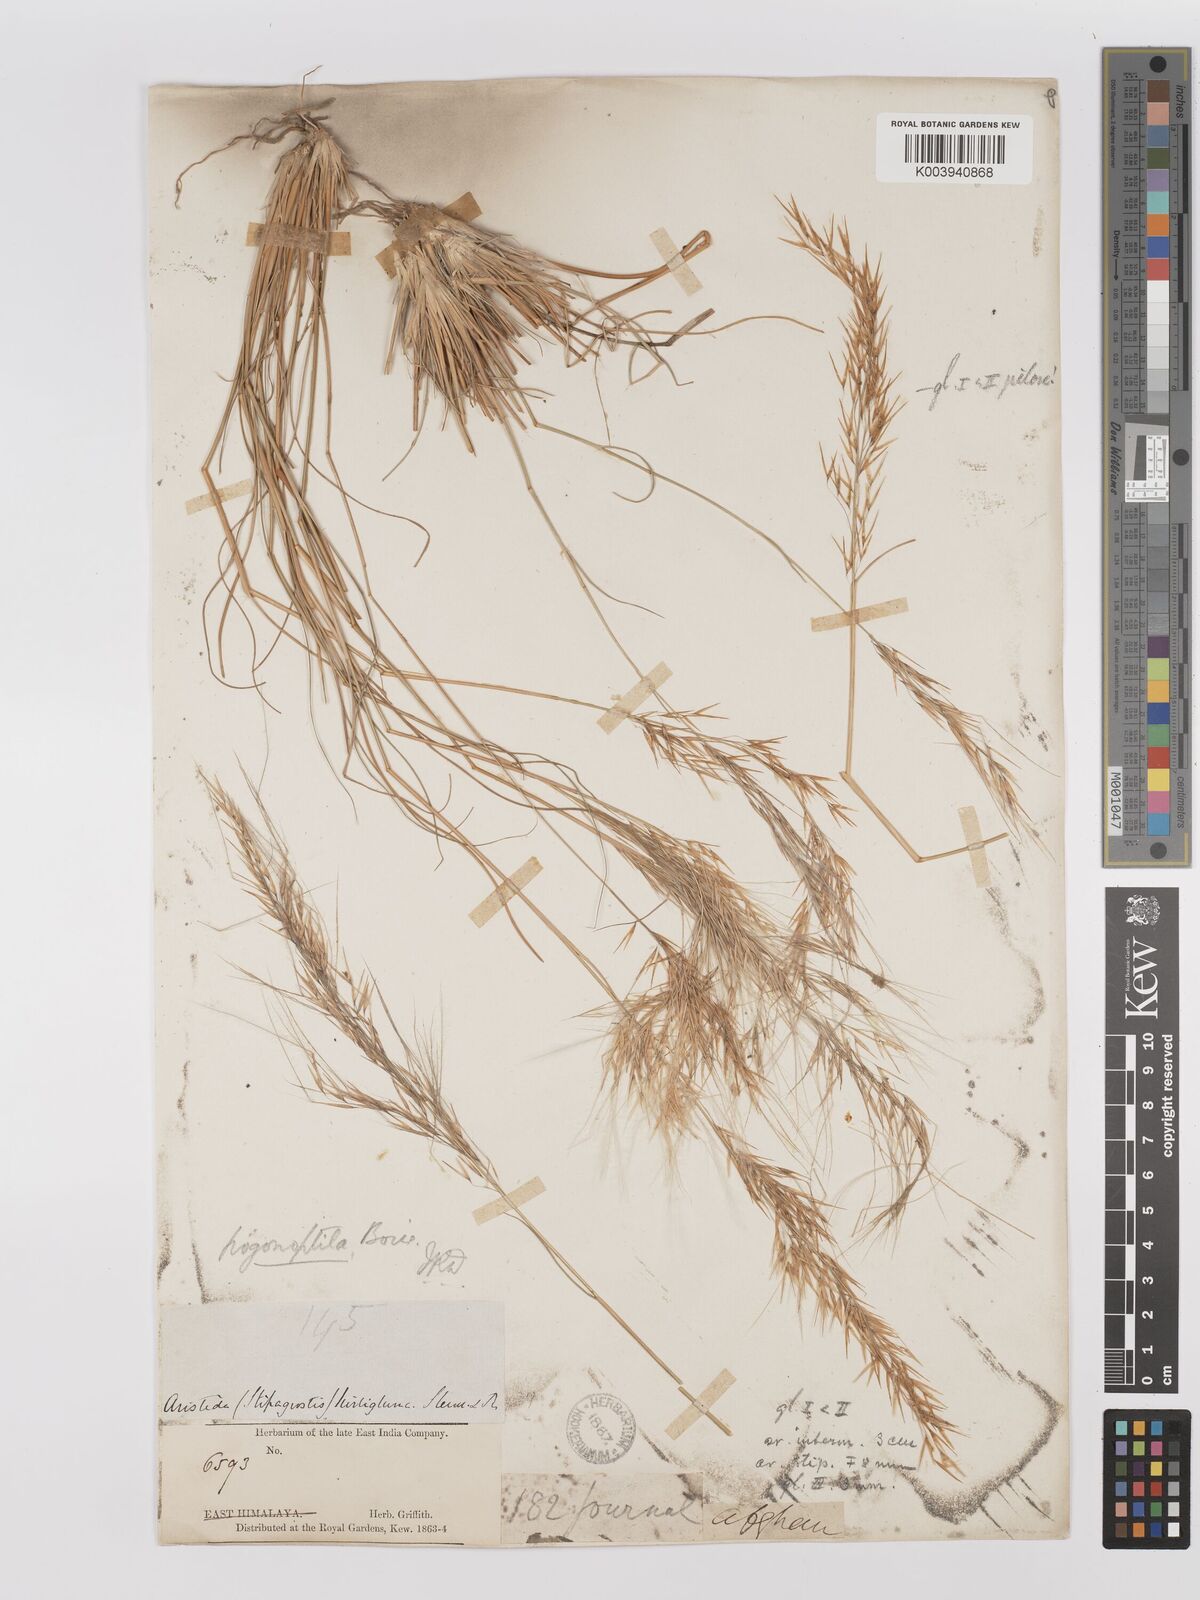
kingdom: Plantae
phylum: Tracheophyta
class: Liliopsida
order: Poales
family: Poaceae
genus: Stipagrostis
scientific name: Stipagrostis uniplumis
